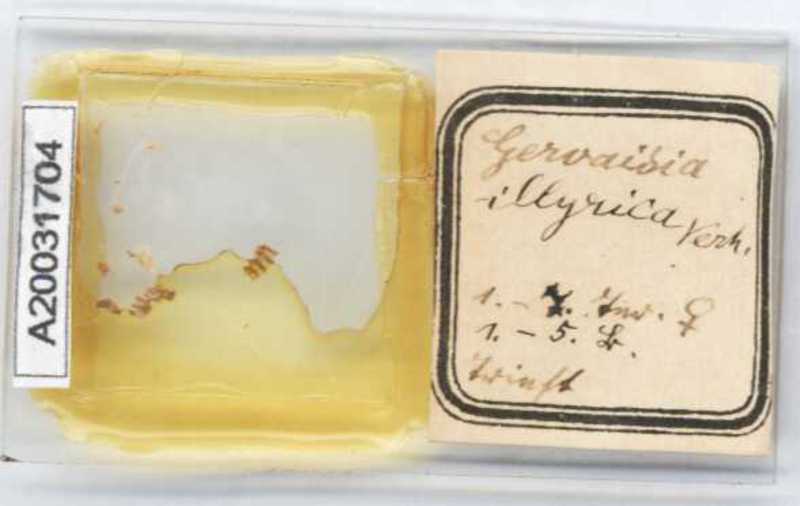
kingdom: Animalia
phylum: Arthropoda
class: Diplopoda
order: Glomerida
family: Glomeridae
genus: Trachysphaera
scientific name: Trachysphaera schmidtii
